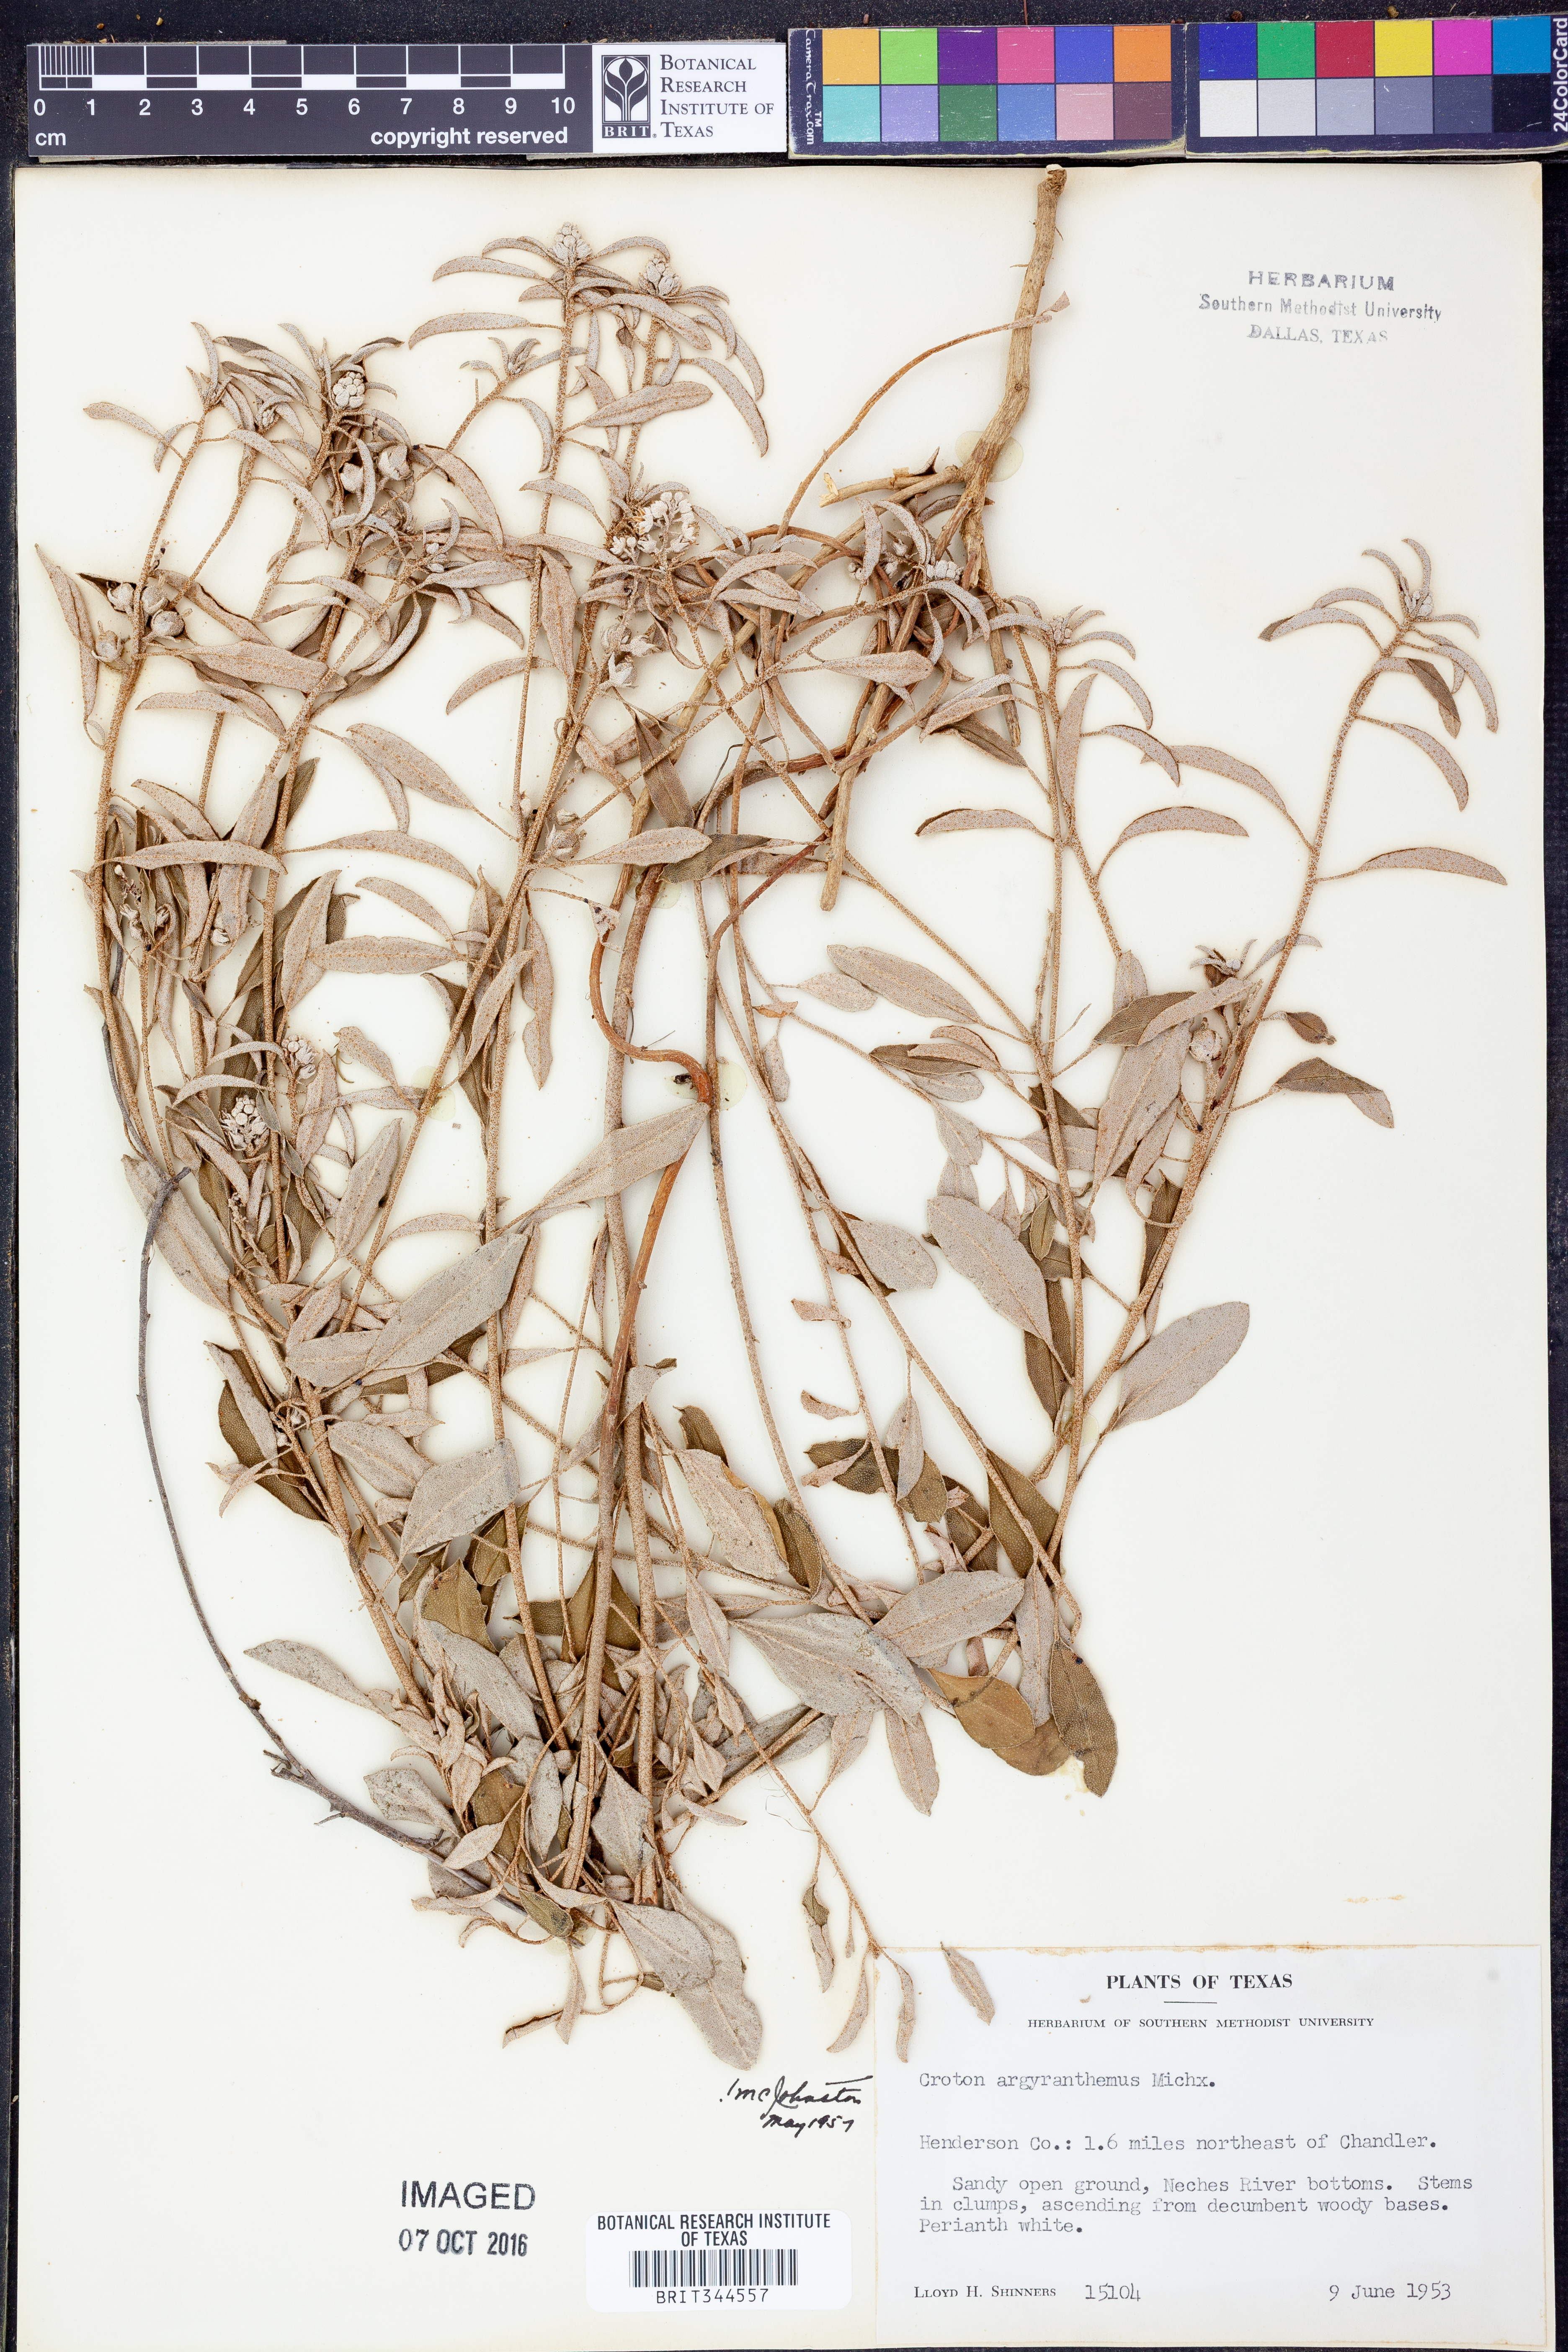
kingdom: Plantae
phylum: Tracheophyta
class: Magnoliopsida
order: Malpighiales
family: Euphorbiaceae
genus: Croton
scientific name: Croton argyranthemus
